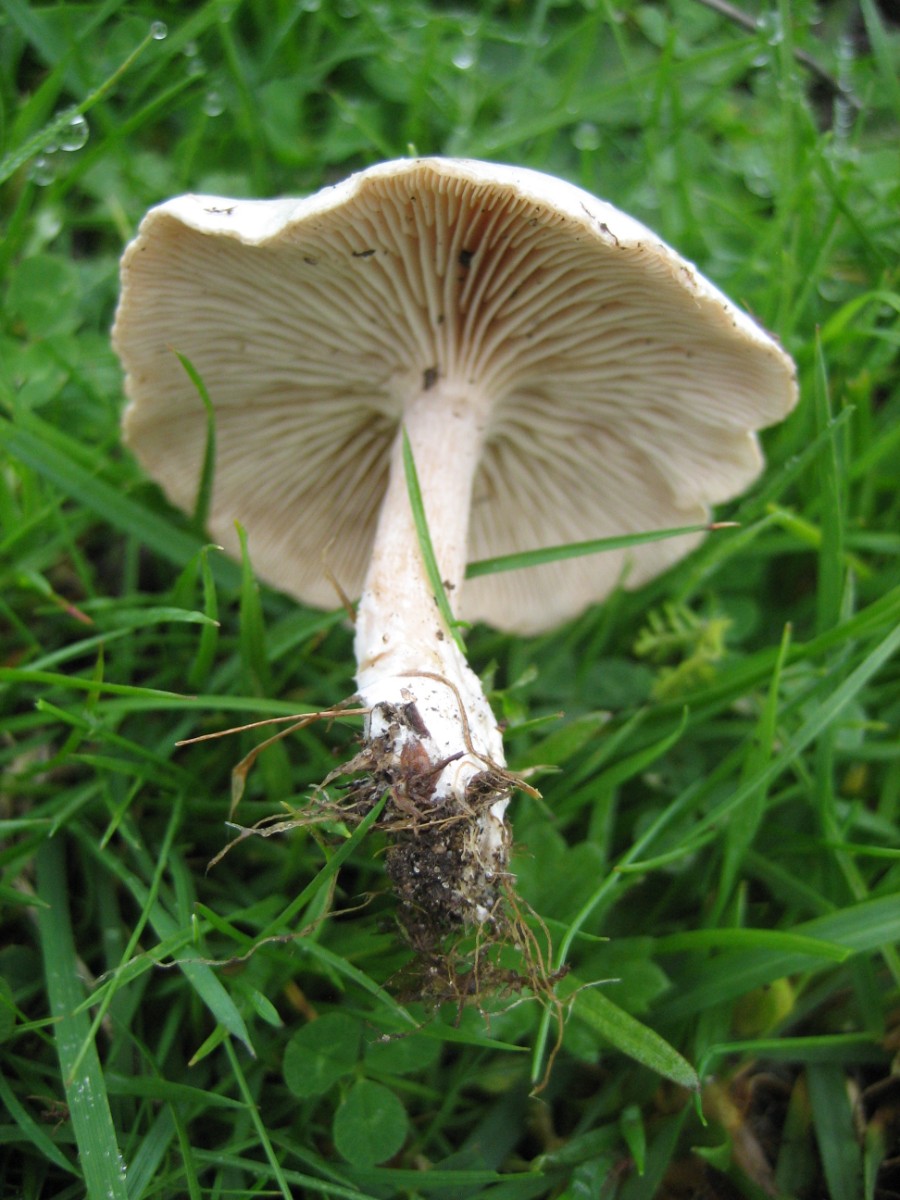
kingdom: Fungi
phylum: Basidiomycota
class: Agaricomycetes
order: Agaricales
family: Tricholomataceae
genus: Clitocybe
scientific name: Clitocybe rivulosa
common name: eng-tragthat
